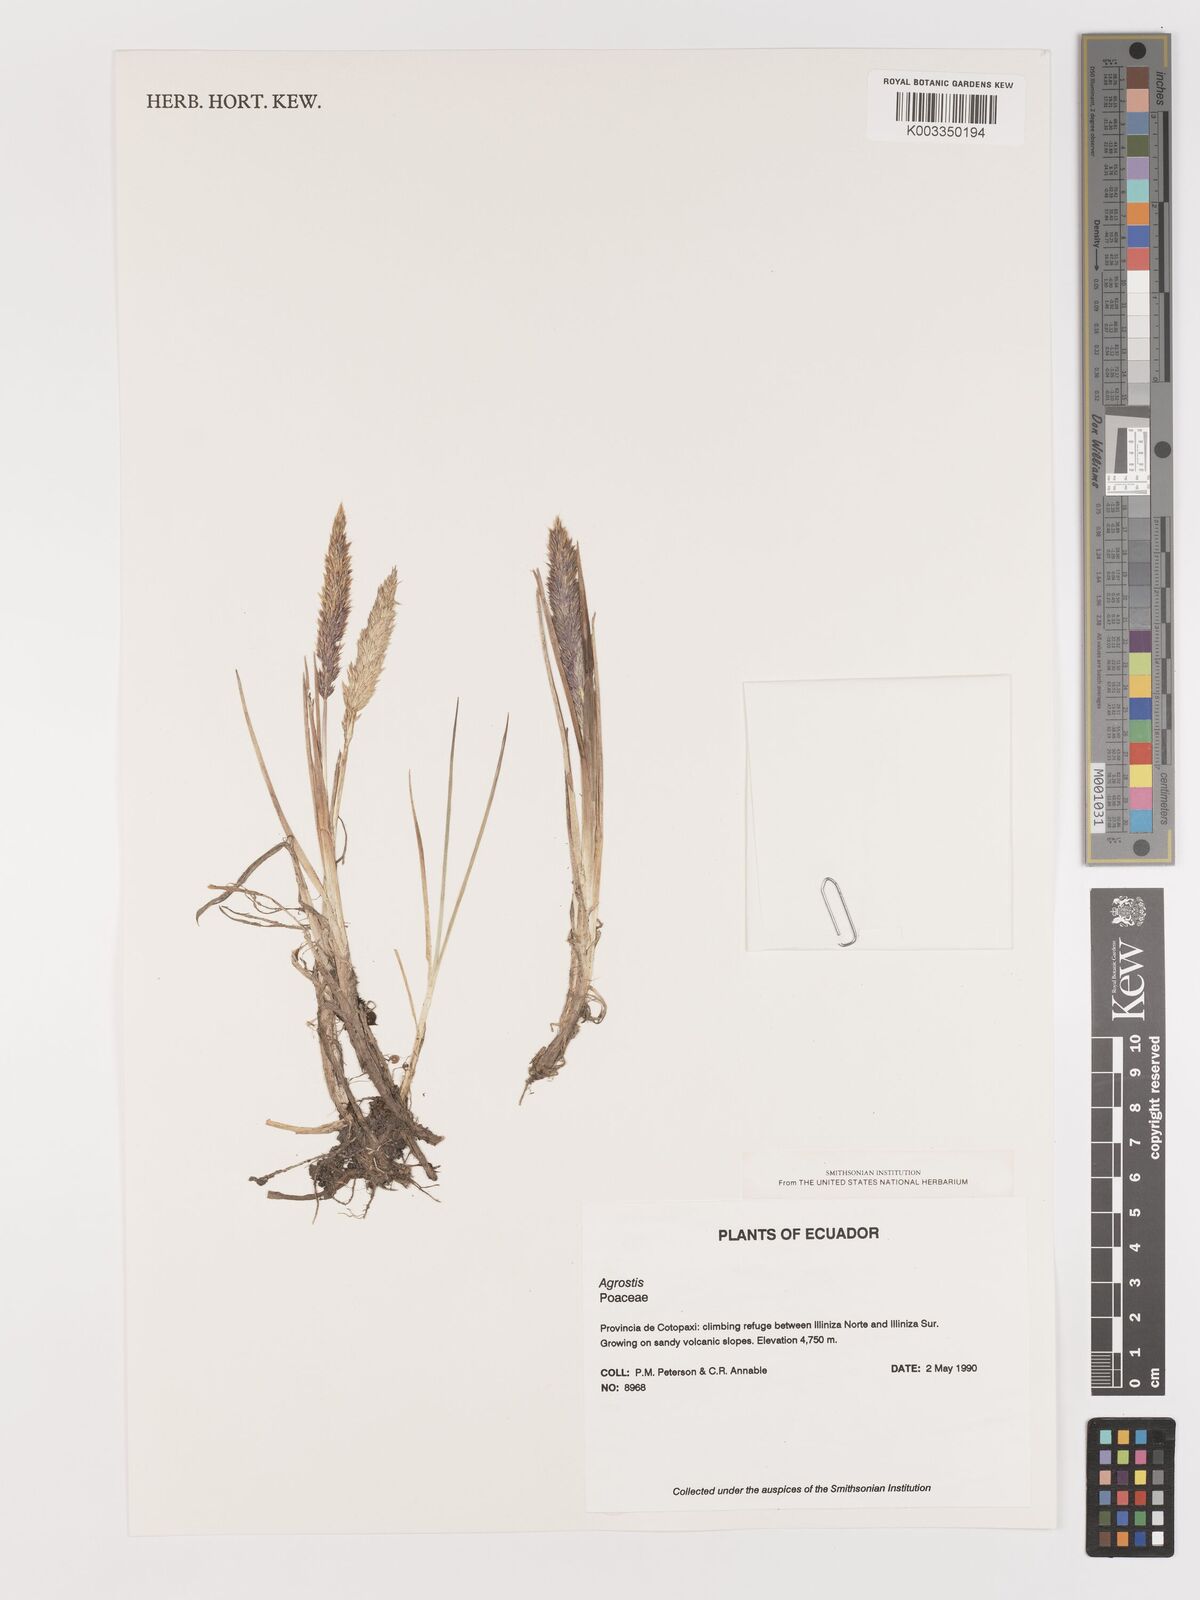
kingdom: Plantae
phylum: Tracheophyta
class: Liliopsida
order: Poales
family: Poaceae
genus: Agrostis
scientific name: Agrostis
